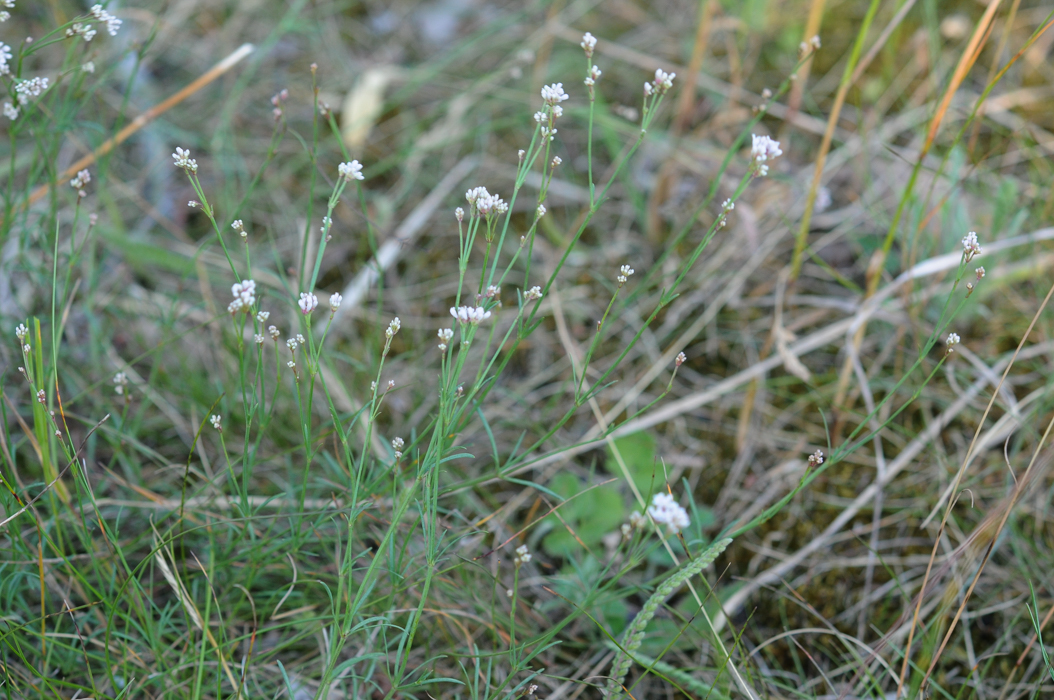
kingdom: Plantae
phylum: Tracheophyta
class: Magnoliopsida
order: Gentianales
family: Rubiaceae
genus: Cynanchica
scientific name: Cynanchica pyrenaica
